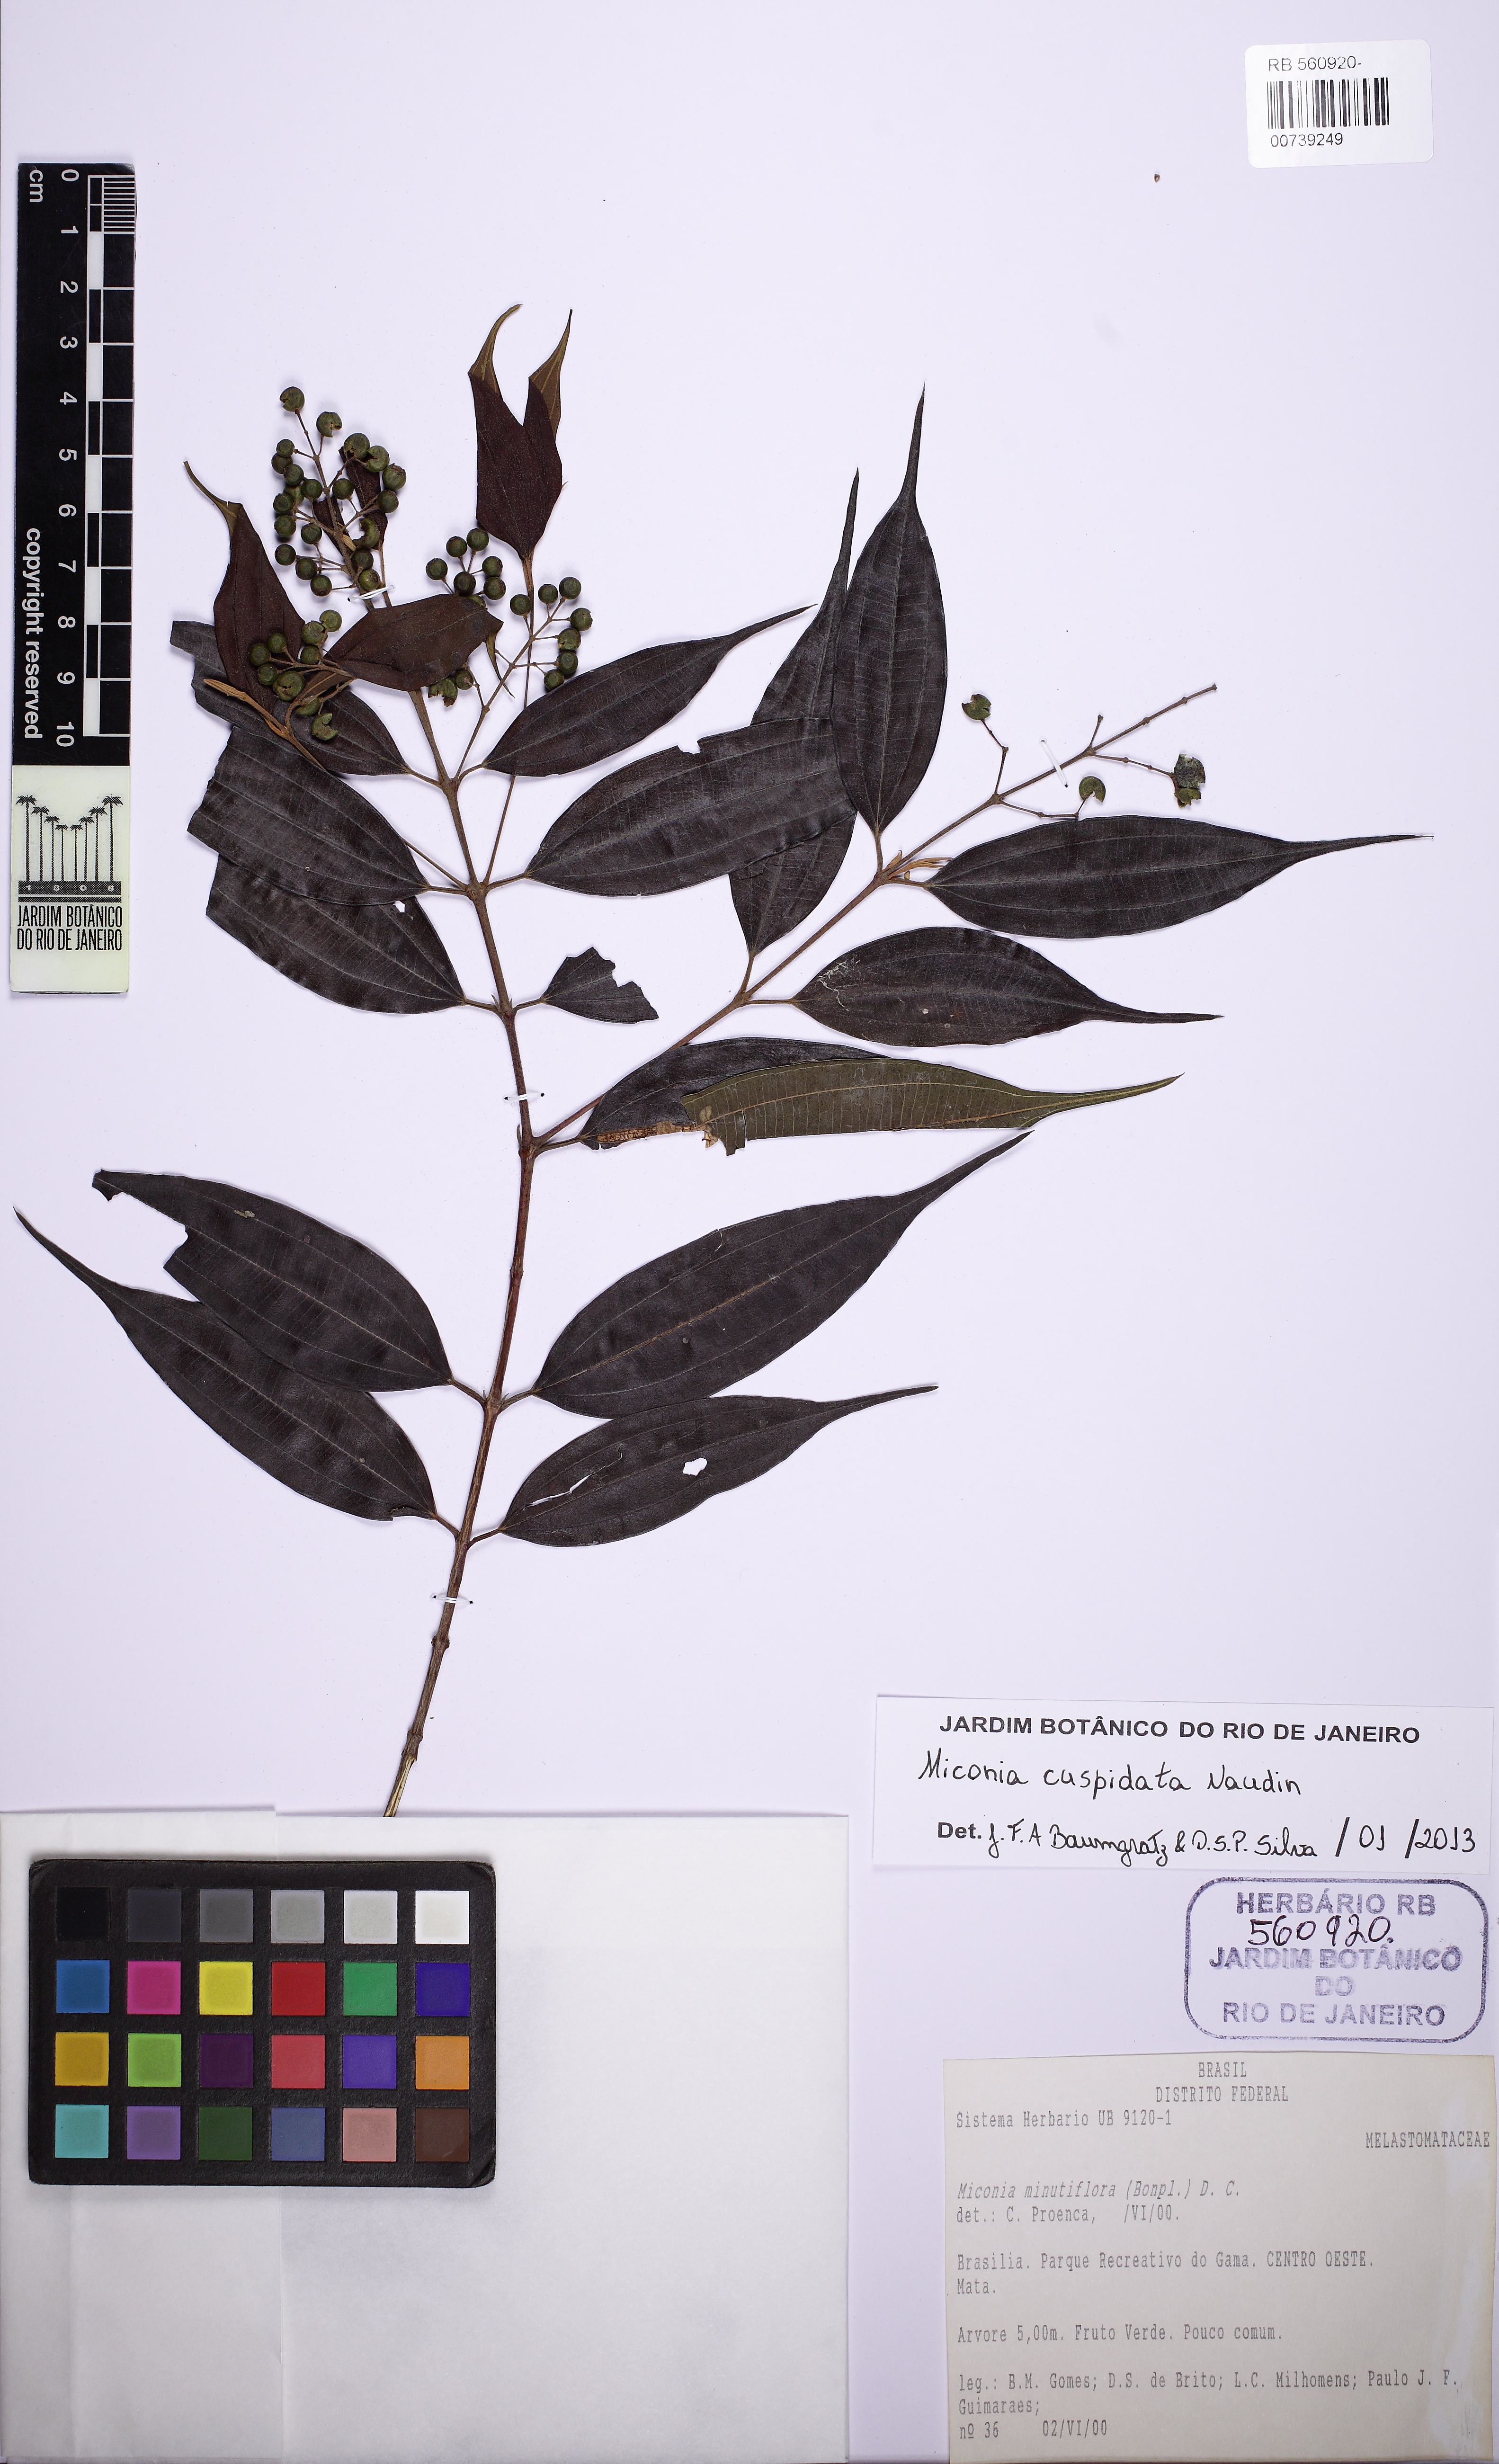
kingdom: Plantae
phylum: Tracheophyta
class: Magnoliopsida
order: Myrtales
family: Melastomataceae
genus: Miconia
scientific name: Miconia cuspidata
